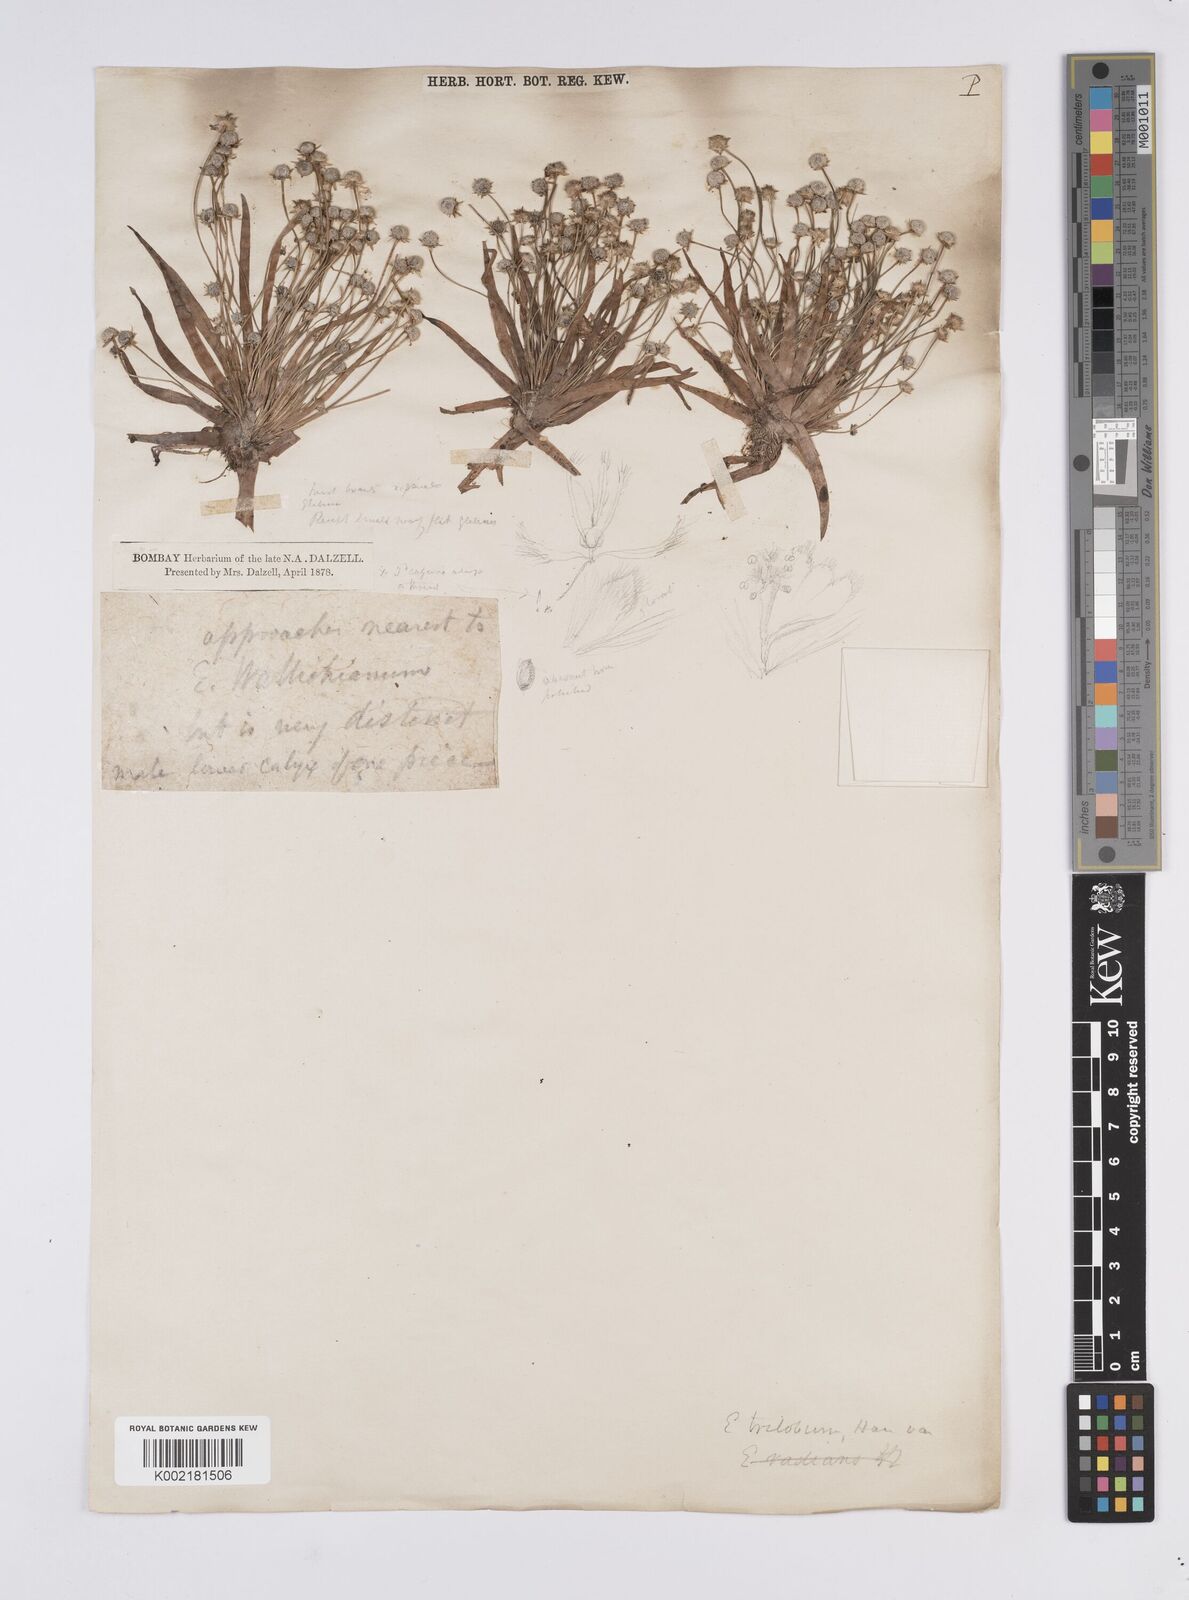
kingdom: Plantae
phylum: Tracheophyta
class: Liliopsida
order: Poales
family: Eriocaulaceae
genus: Eriocaulon
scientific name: Eriocaulon sollyanum
